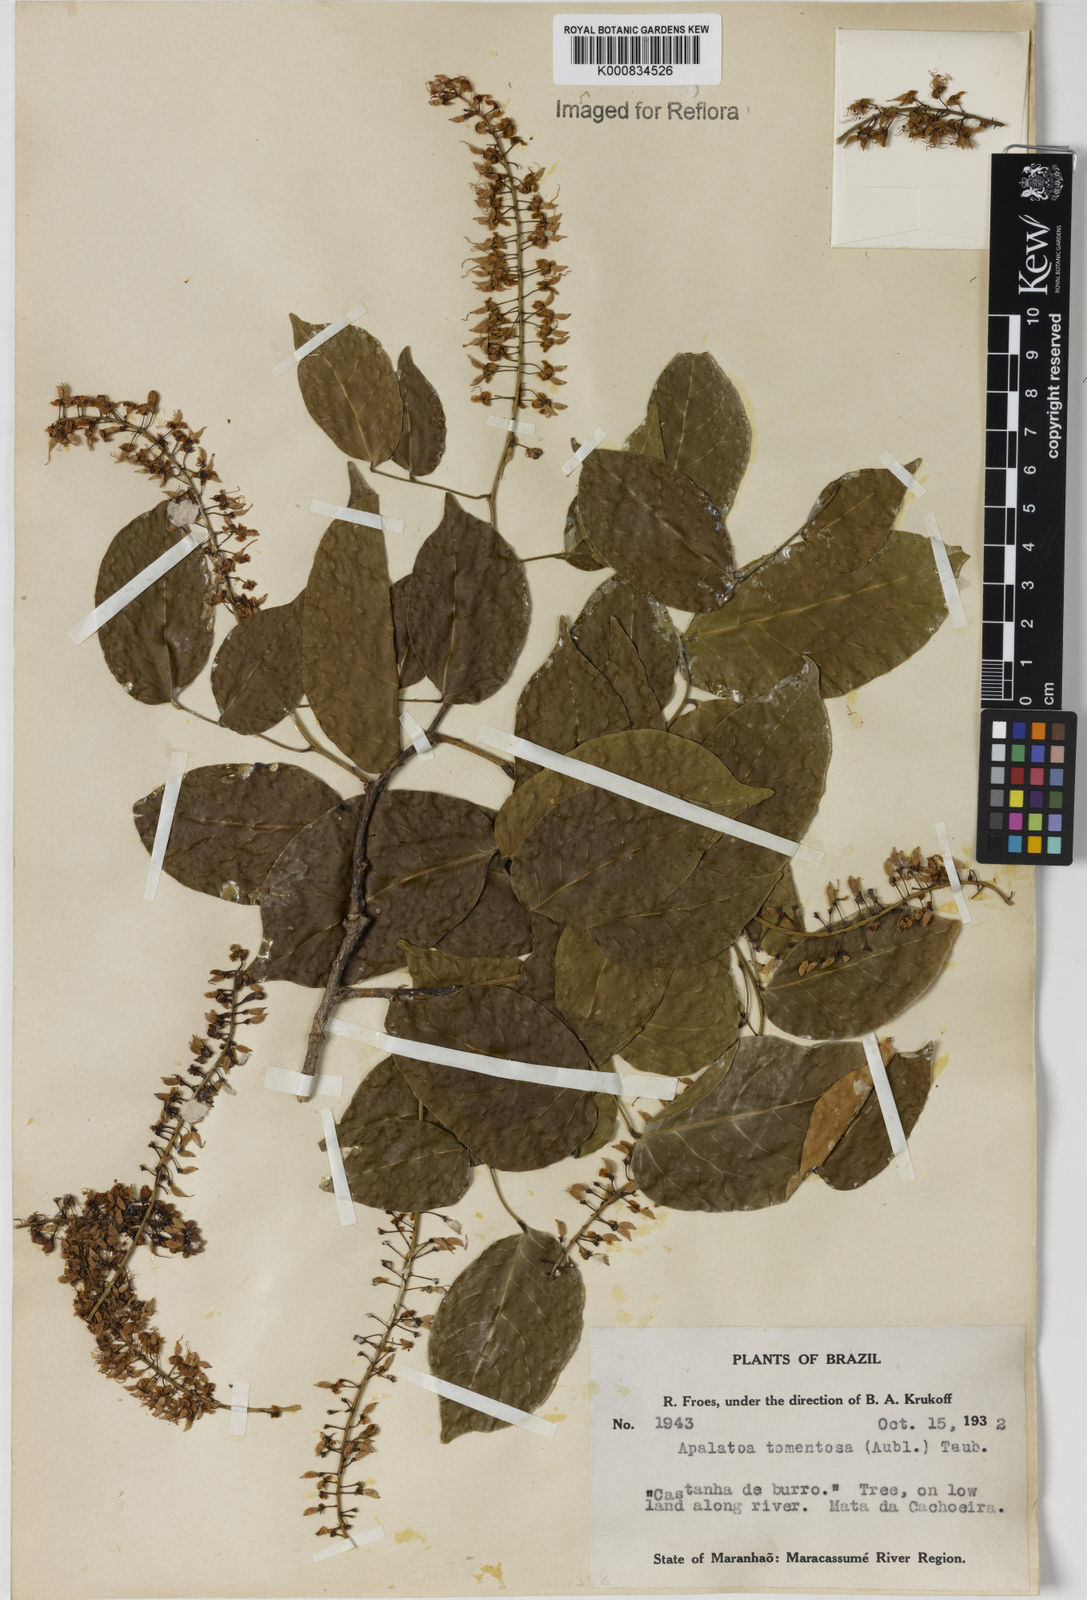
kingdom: Plantae
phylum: Tracheophyta
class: Magnoliopsida
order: Fabales
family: Fabaceae
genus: Crudia
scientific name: Crudia tomentosa
